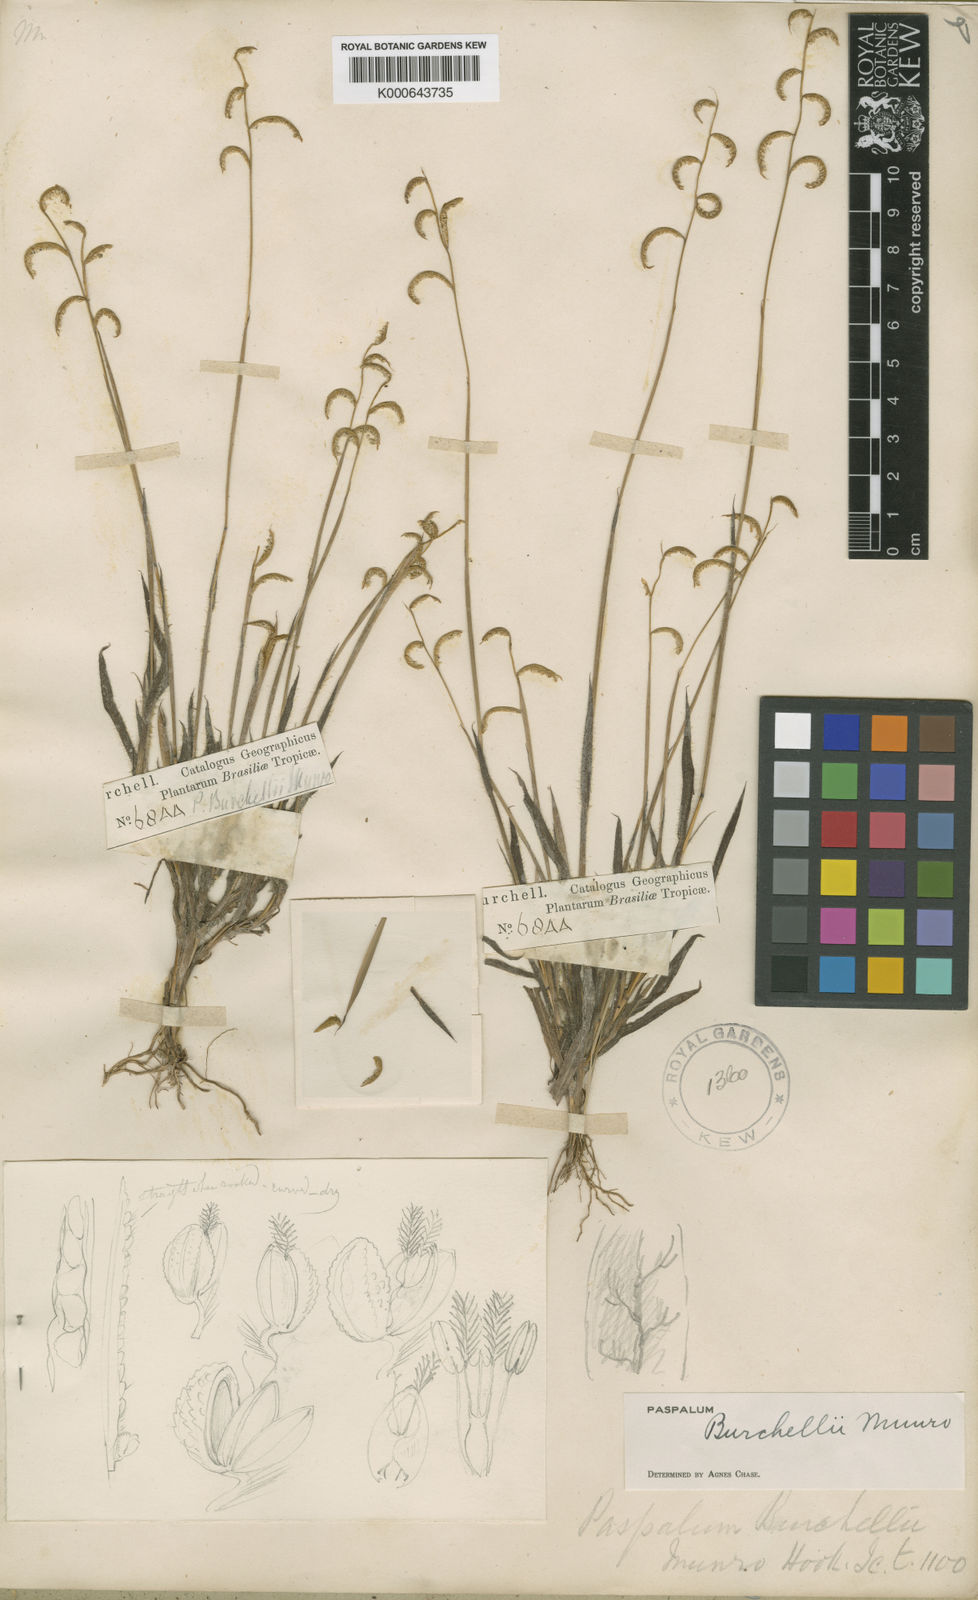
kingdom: Plantae
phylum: Tracheophyta
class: Liliopsida
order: Poales
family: Poaceae
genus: Paspalum
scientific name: Paspalum burchellii
